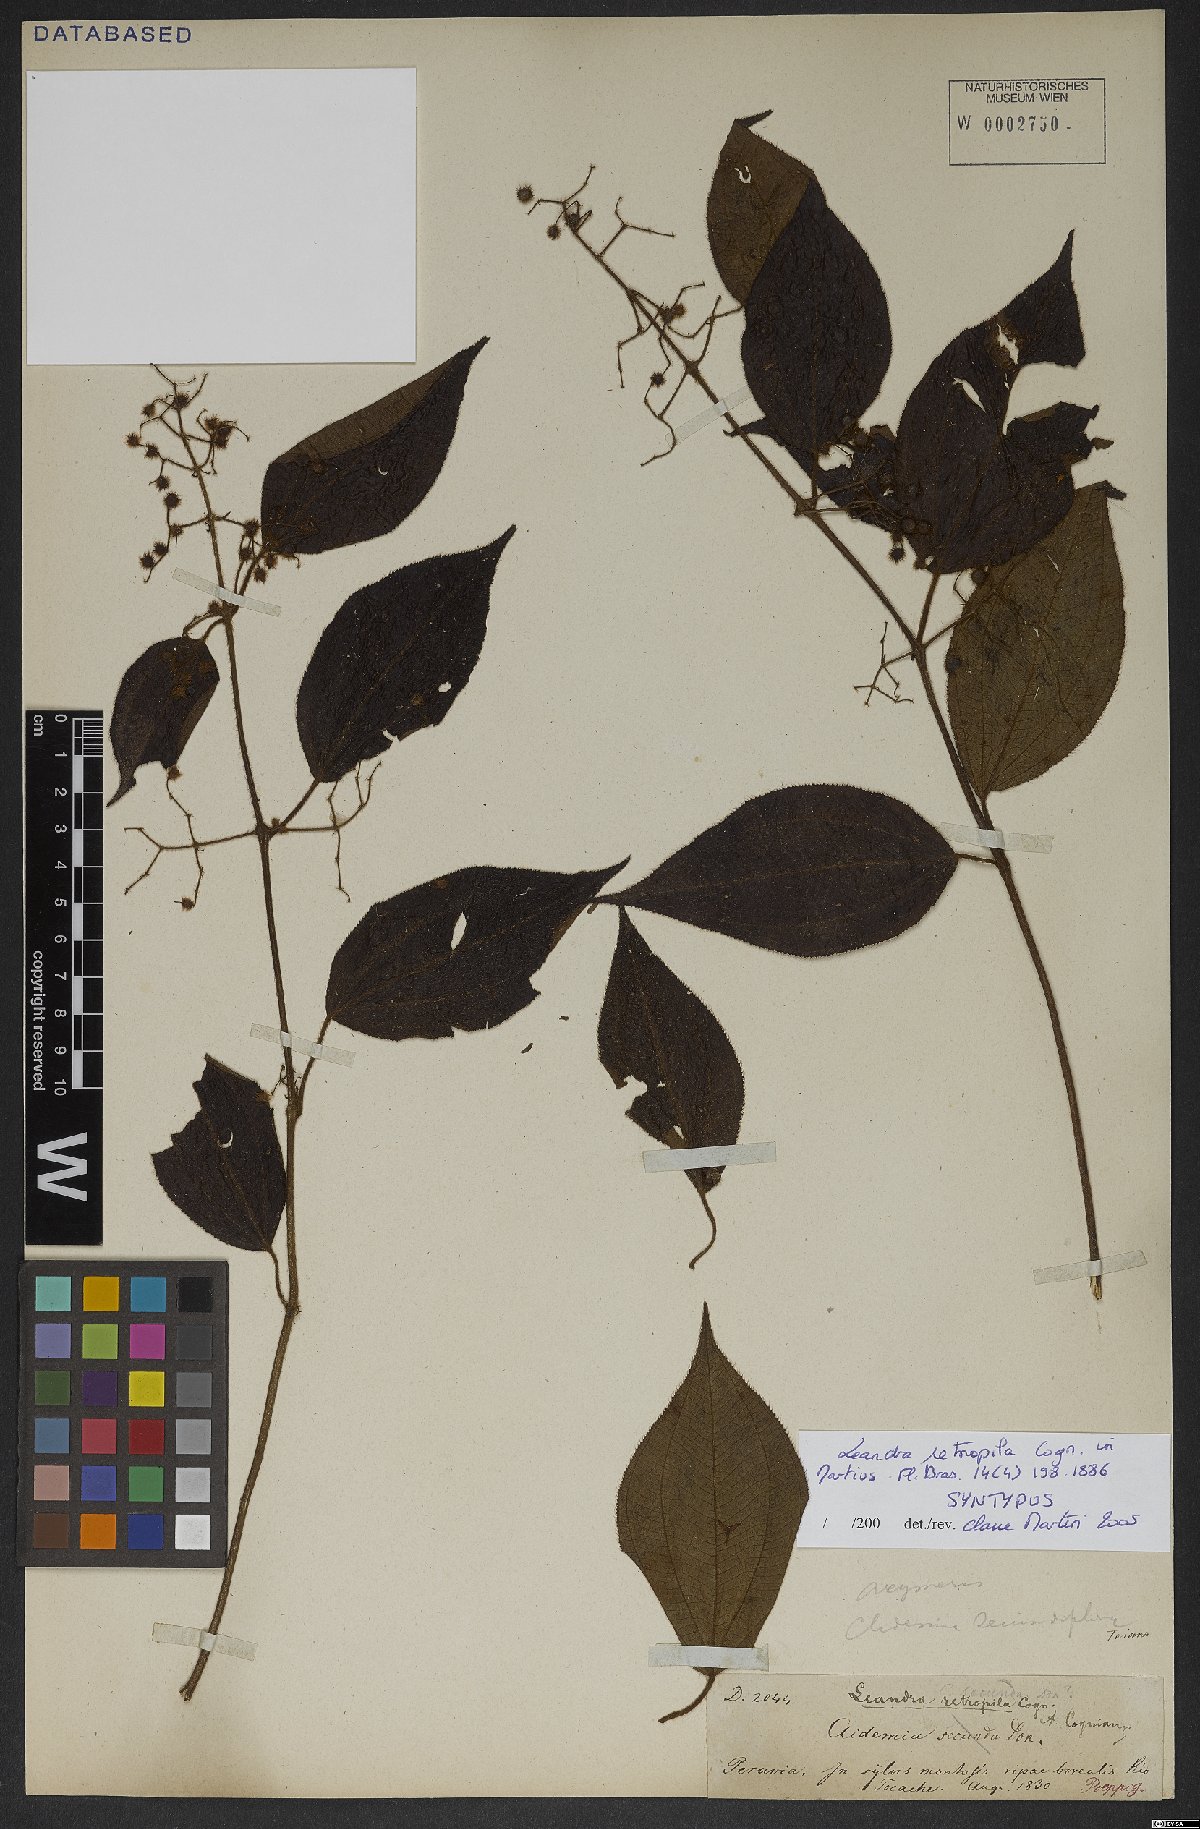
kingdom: Plantae
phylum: Tracheophyta
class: Magnoliopsida
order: Myrtales
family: Melastomataceae
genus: Miconia
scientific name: Miconia secunretropila
